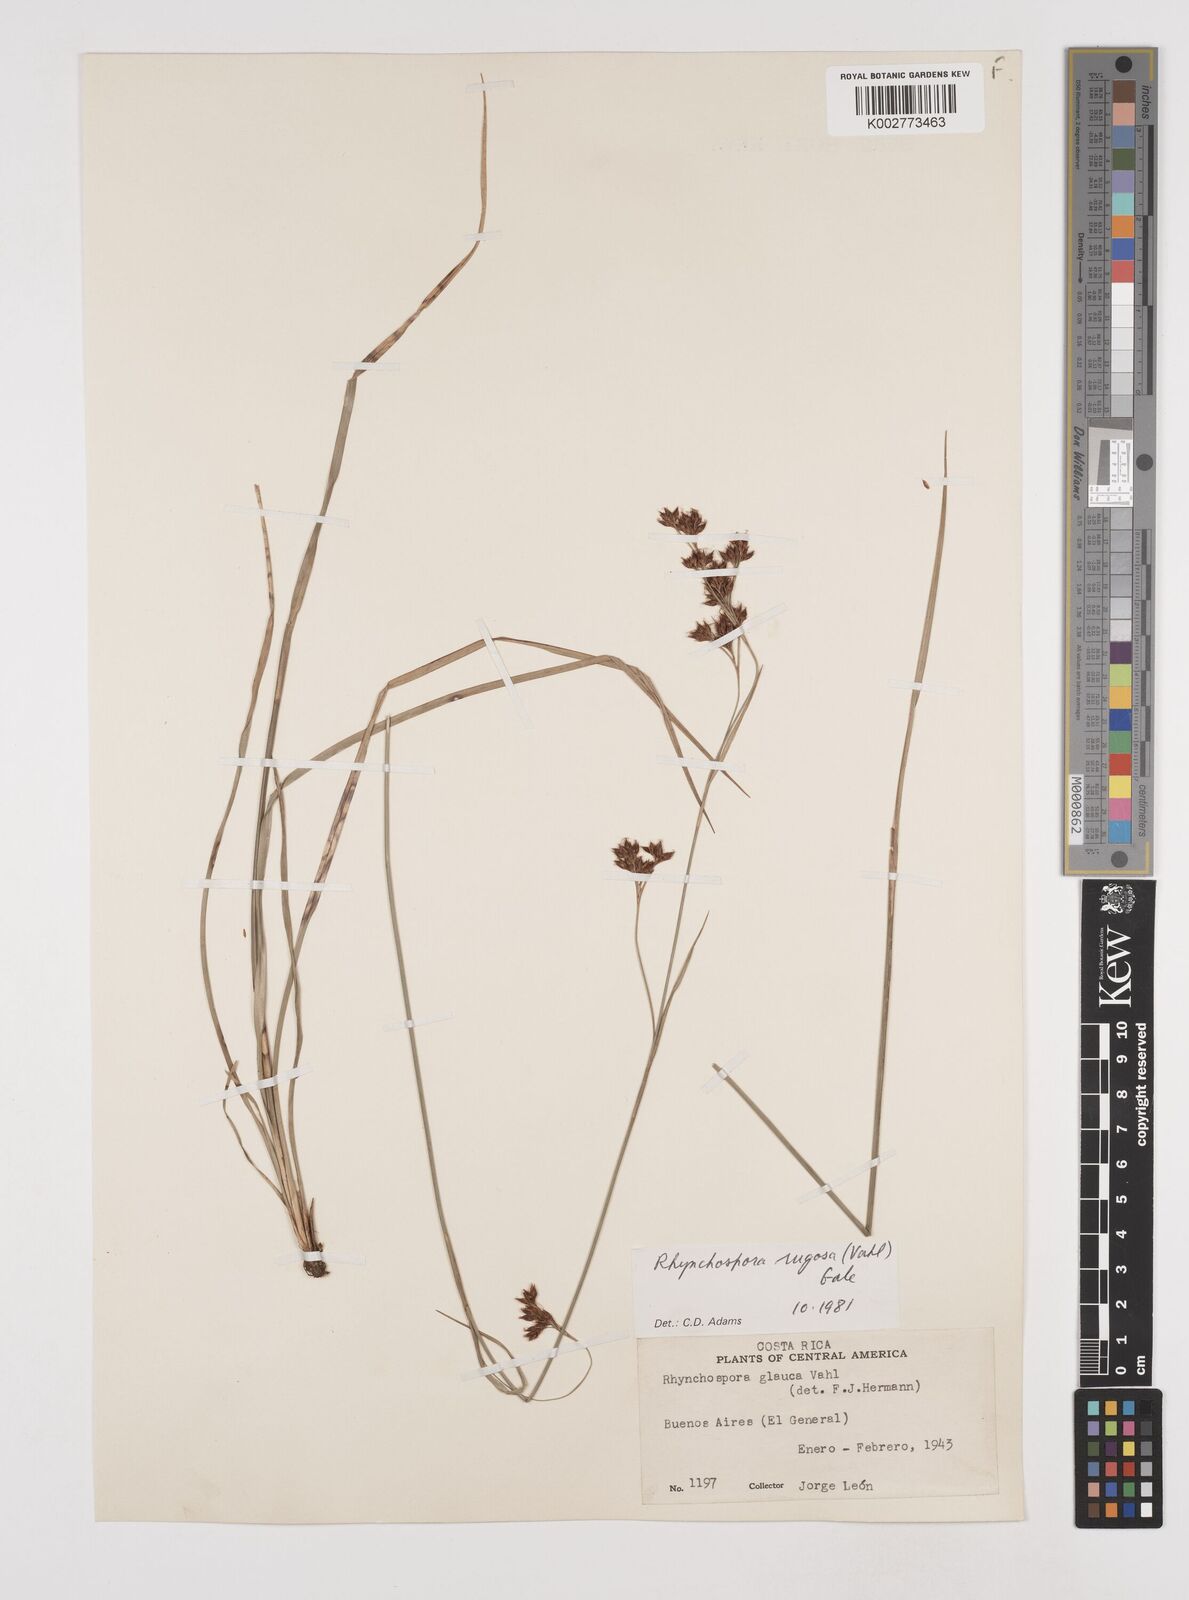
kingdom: Plantae
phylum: Tracheophyta
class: Liliopsida
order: Poales
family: Cyperaceae
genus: Rhynchospora
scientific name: Rhynchospora rugosa
